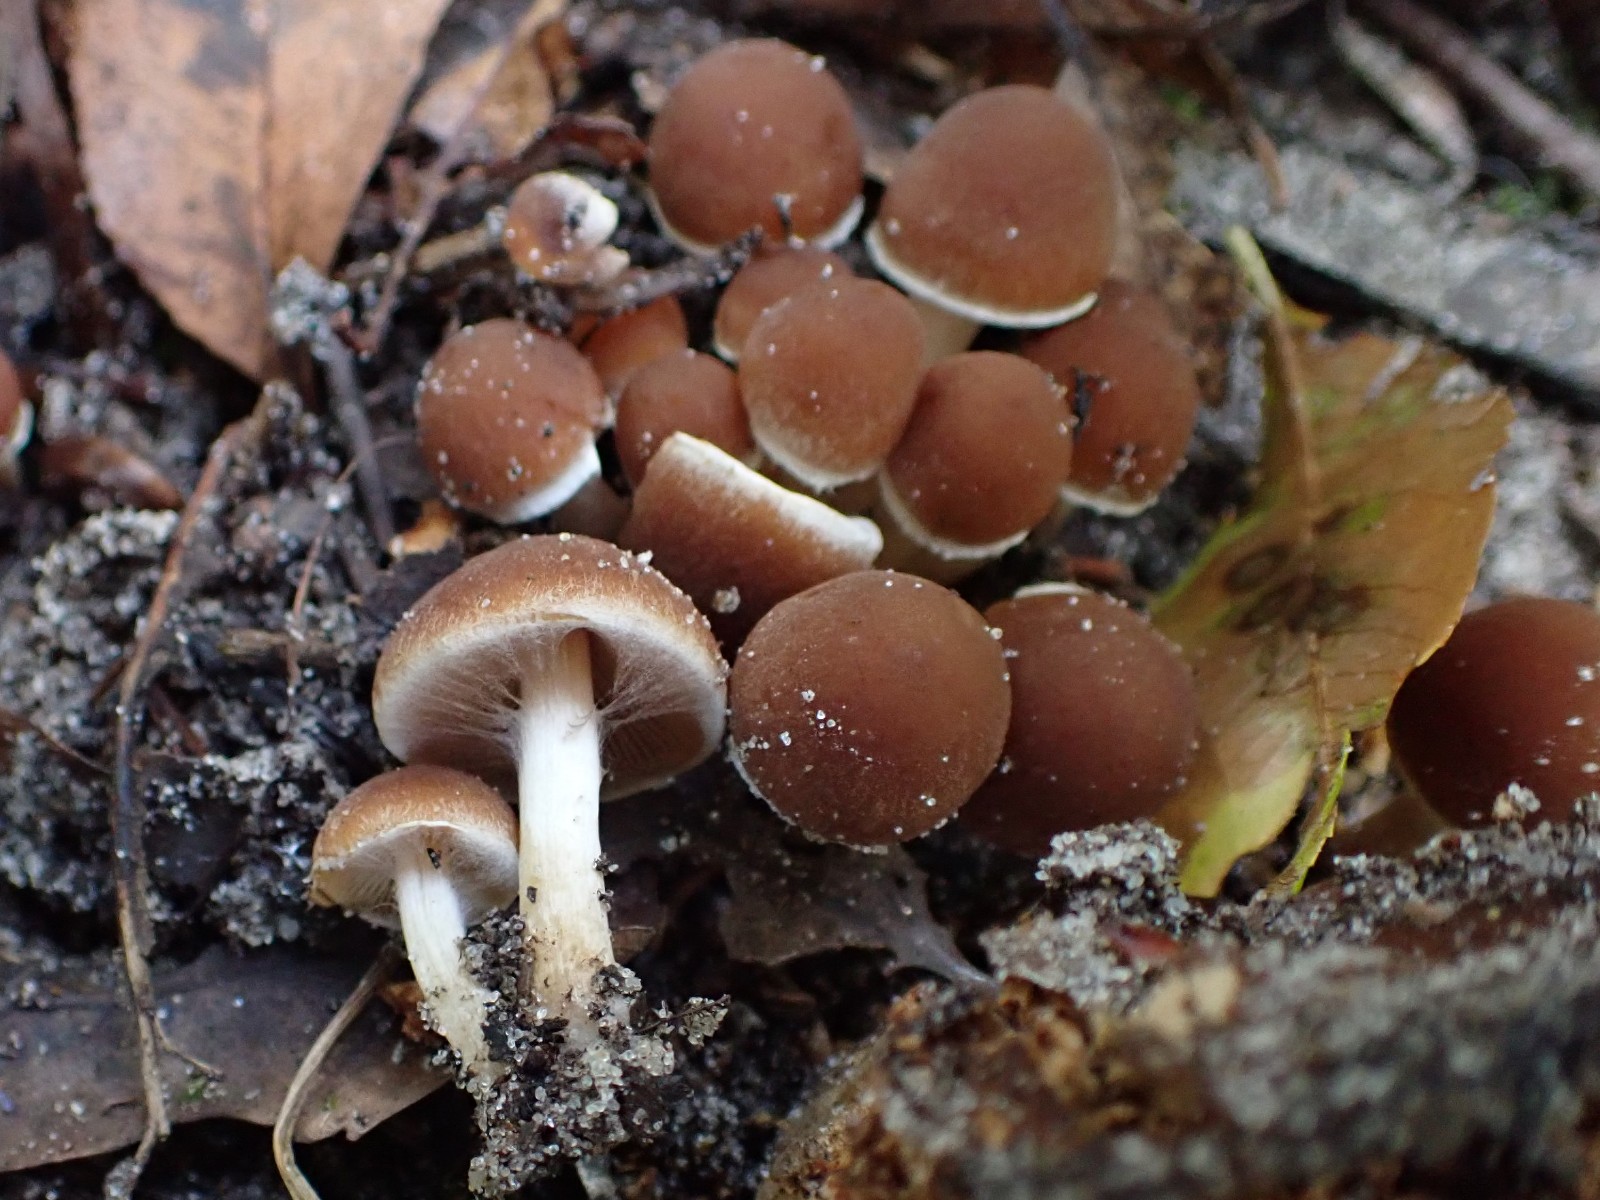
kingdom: Fungi
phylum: Basidiomycota
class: Agaricomycetes
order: Agaricales
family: Psathyrellaceae
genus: Psathyrella
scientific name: Psathyrella piluliformis
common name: lysstokket mørkhat
